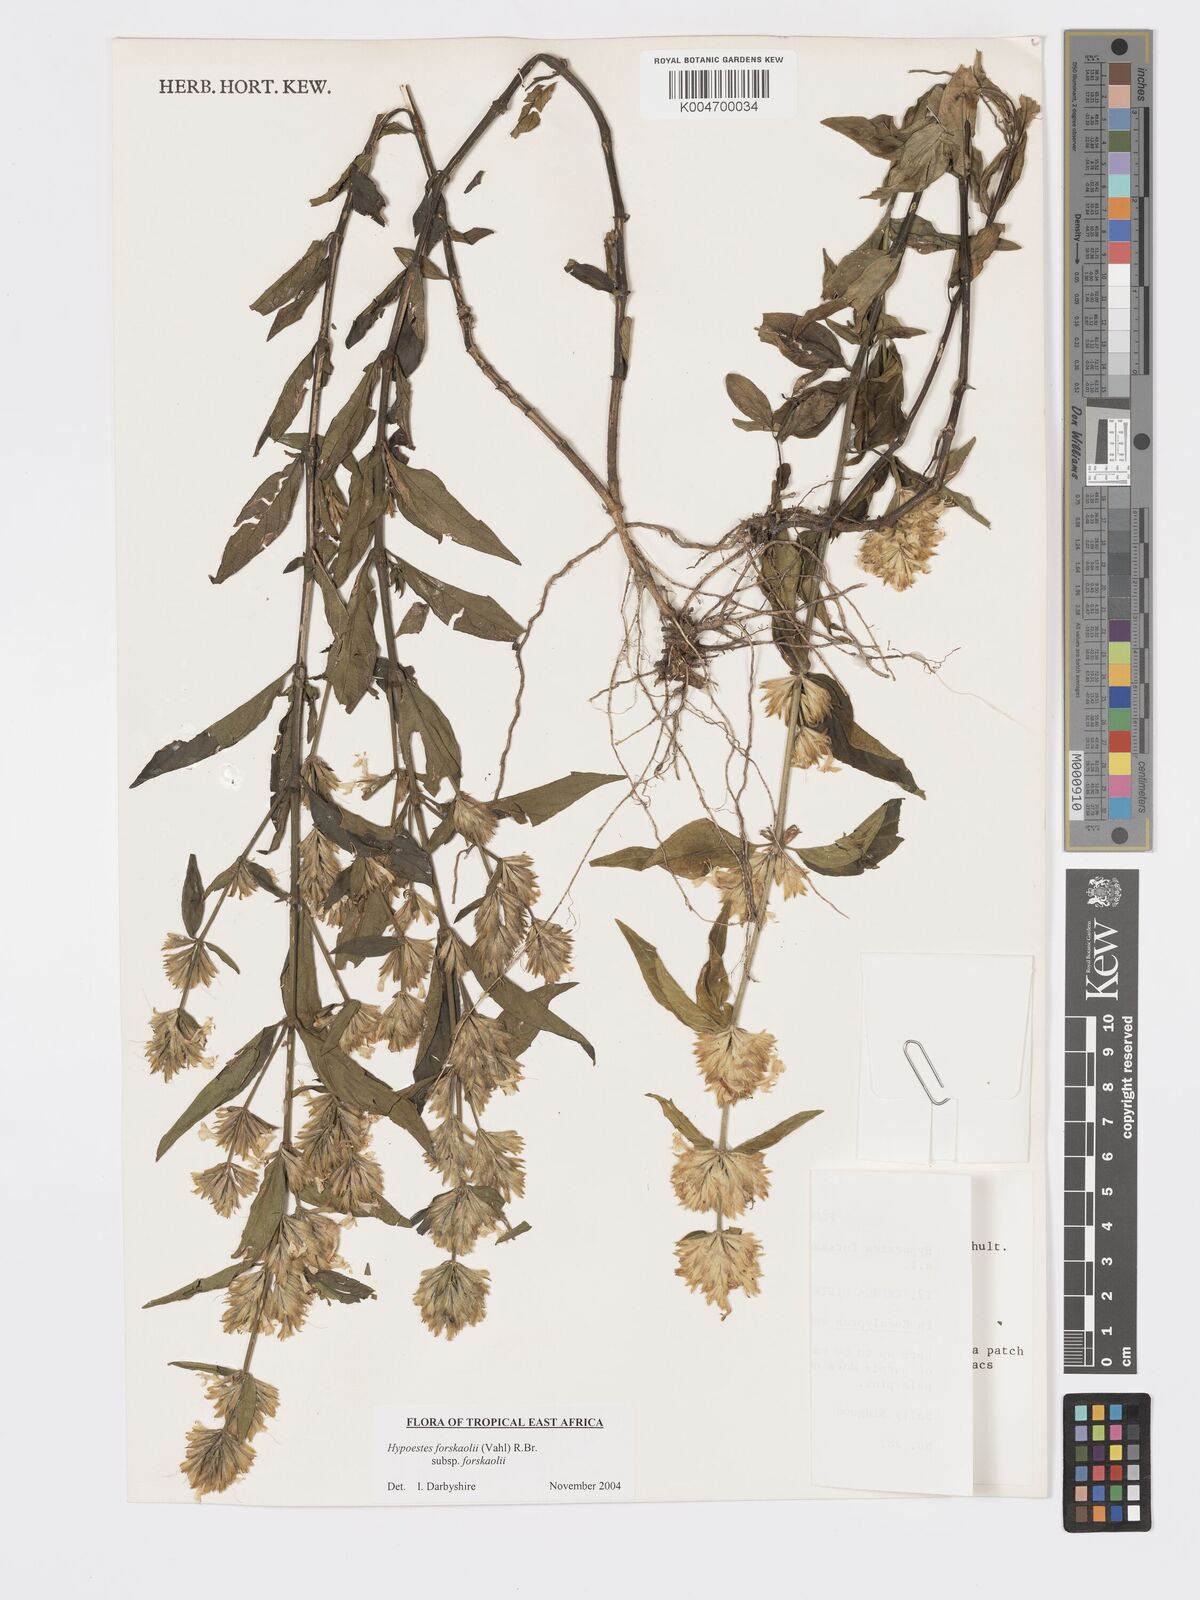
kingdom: Plantae
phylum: Tracheophyta
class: Magnoliopsida
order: Lamiales
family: Acanthaceae
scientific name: Acanthaceae
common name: Acanthaceae
